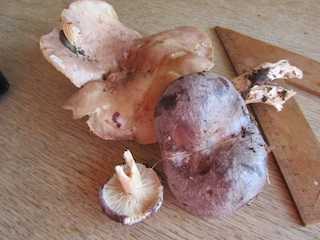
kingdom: Fungi
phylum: Basidiomycota
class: Agaricomycetes
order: Russulales
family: Russulaceae
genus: Lactarius
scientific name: Lactarius trivialis
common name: nordisk mælkehat
